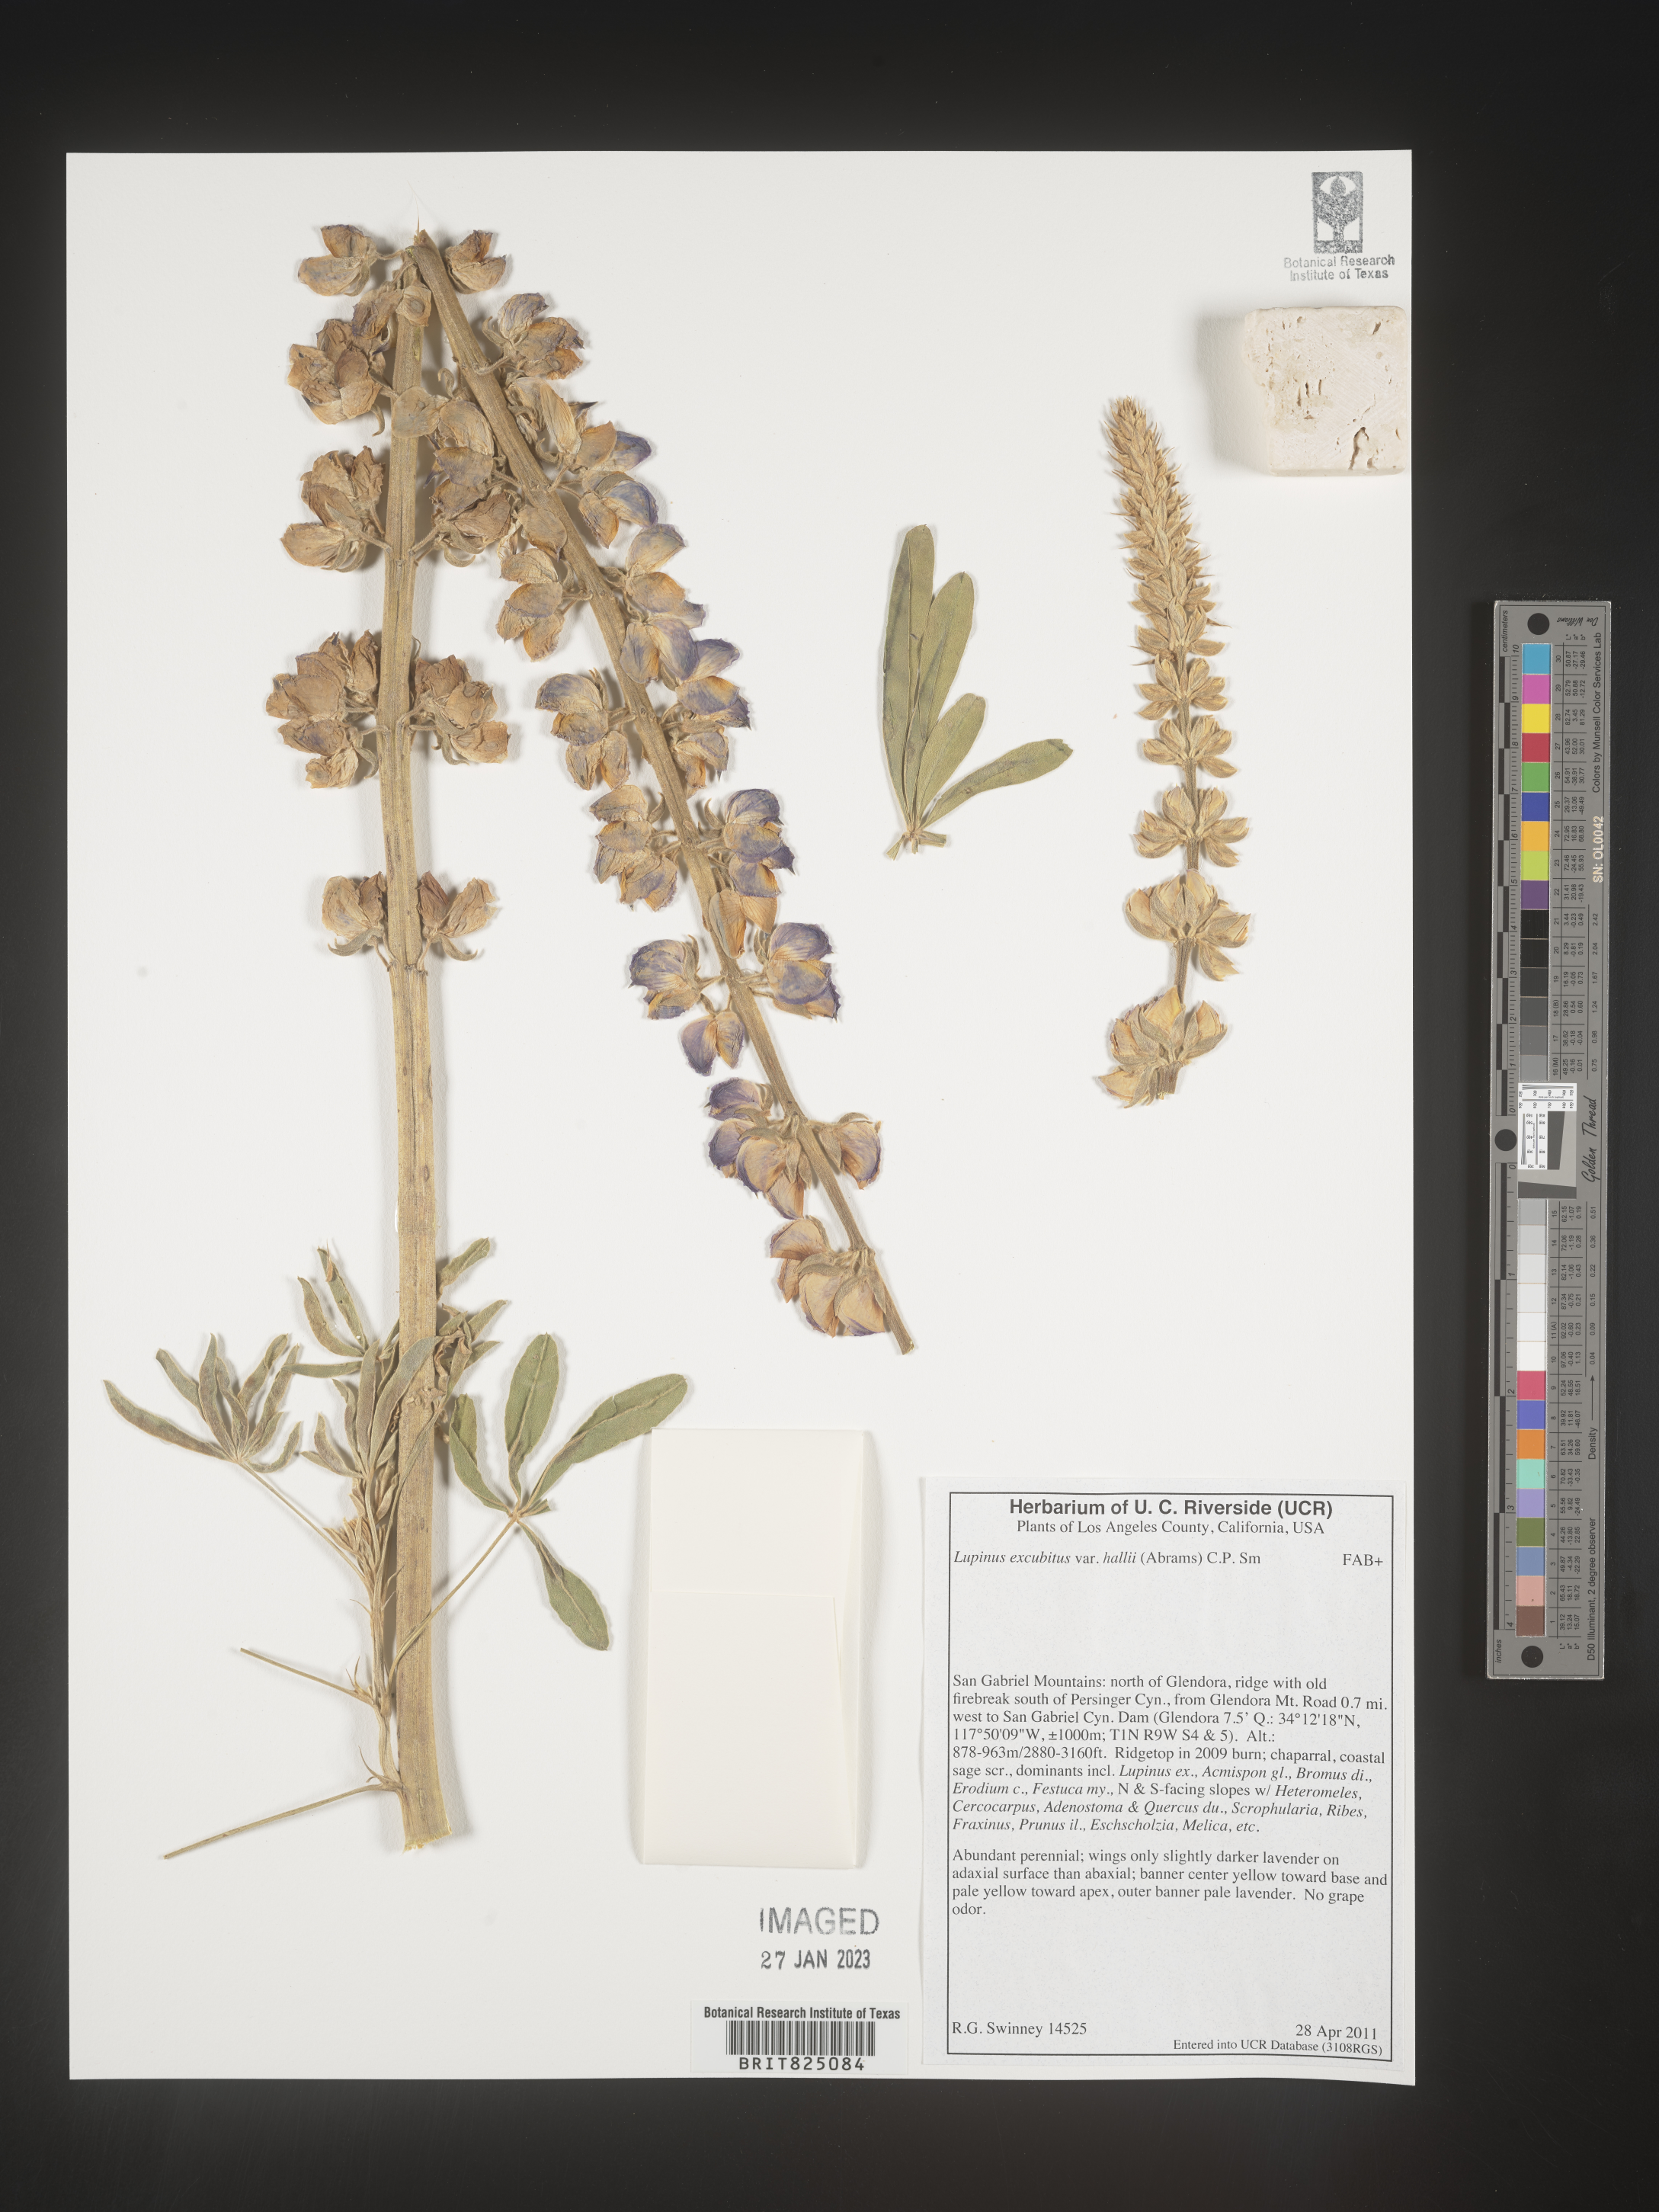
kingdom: Plantae
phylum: Tracheophyta
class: Magnoliopsida
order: Fabales
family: Fabaceae
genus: Lupinus
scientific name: Lupinus
